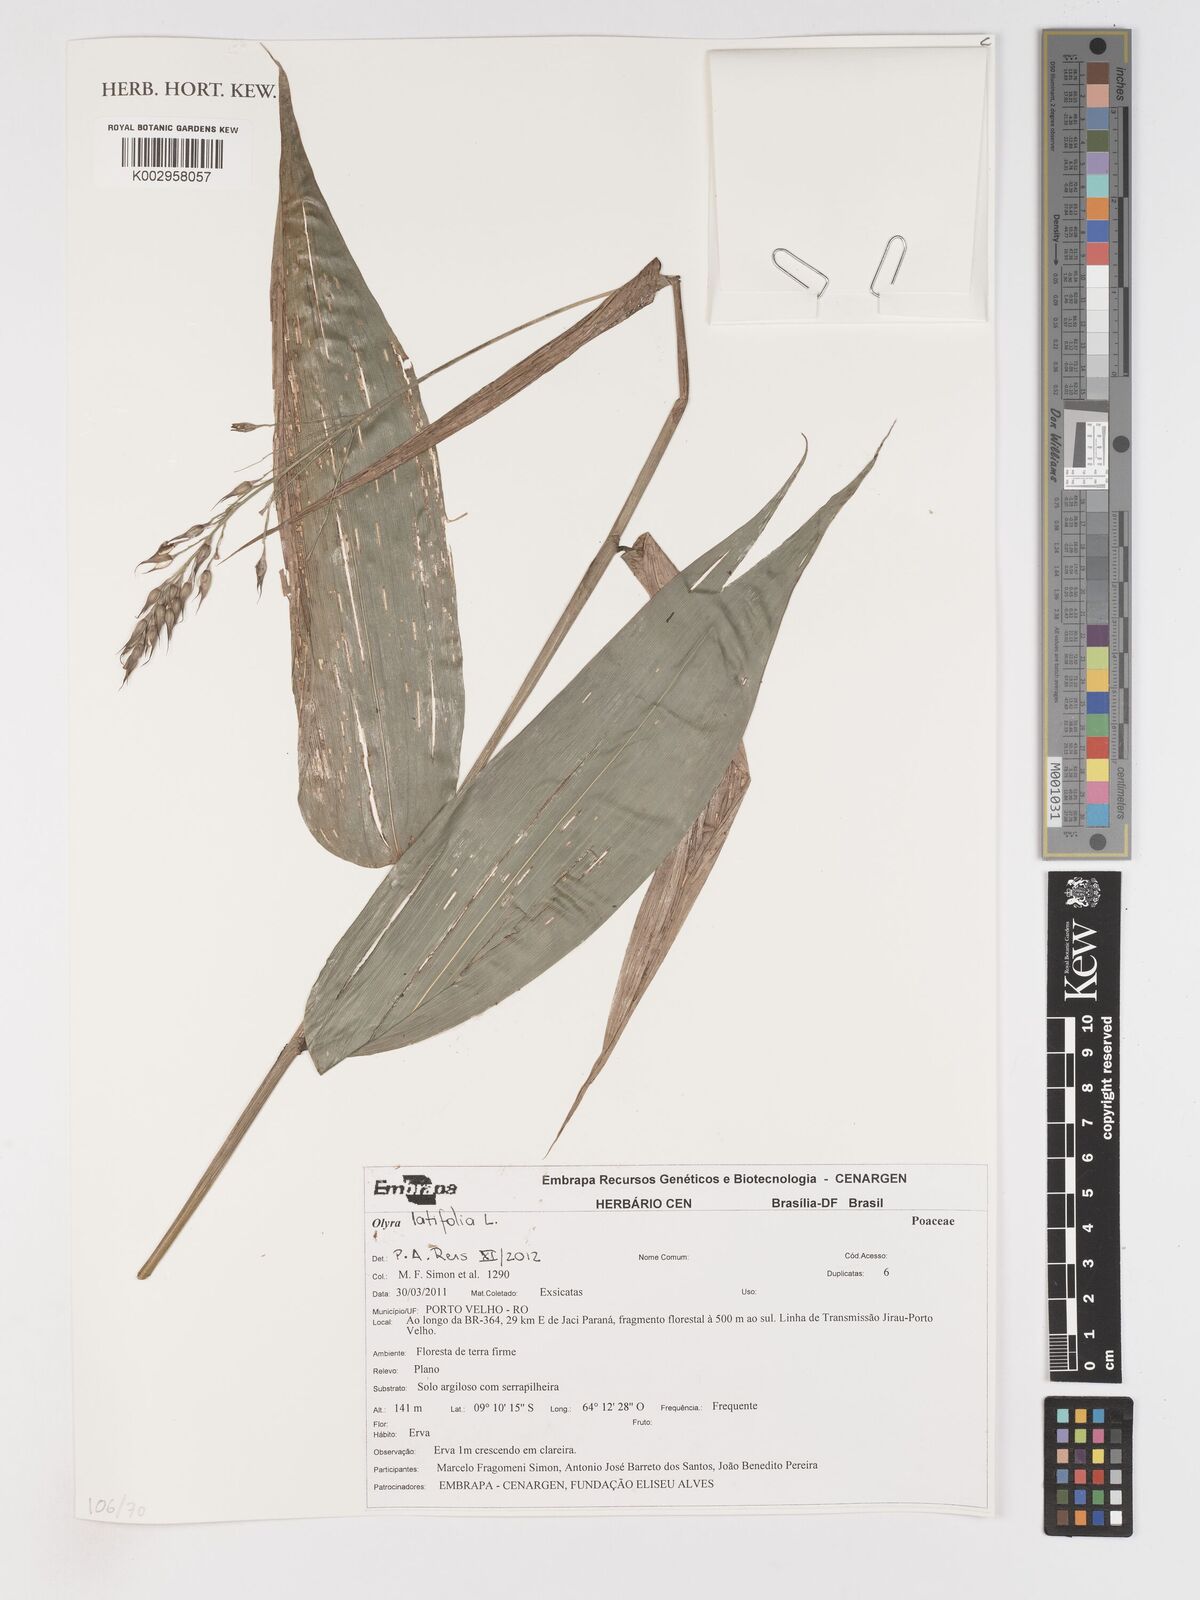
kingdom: Plantae
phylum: Tracheophyta
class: Liliopsida
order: Poales
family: Poaceae
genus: Olyra
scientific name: Olyra latifolia
